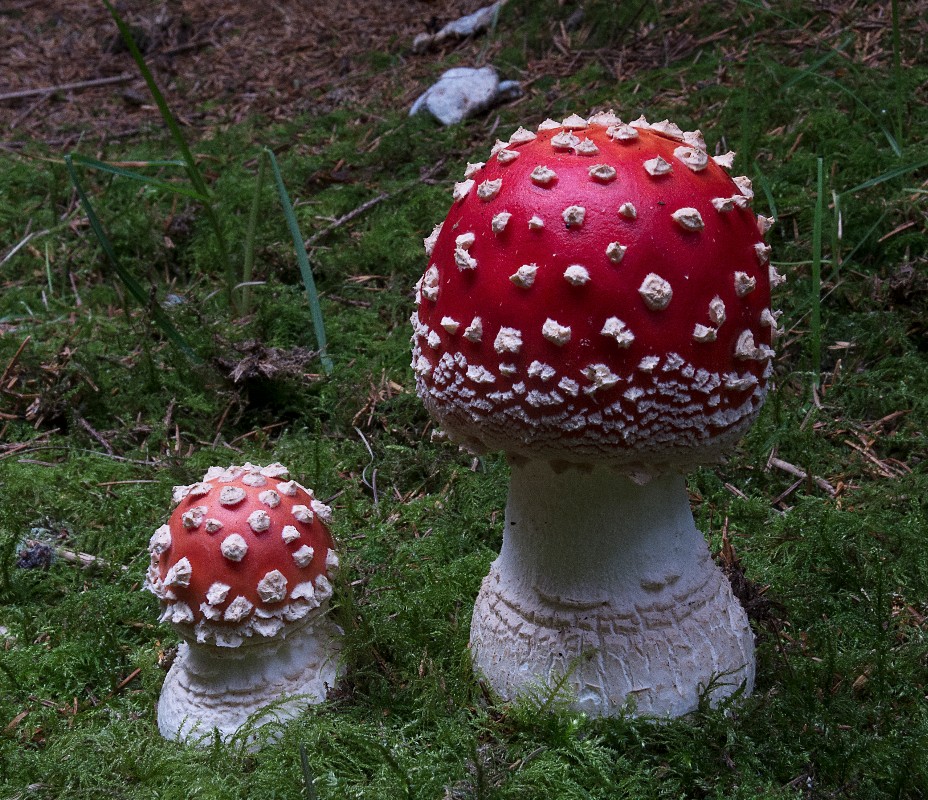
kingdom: Fungi
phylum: Basidiomycota
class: Agaricomycetes
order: Agaricales
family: Amanitaceae
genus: Amanita
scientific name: Amanita muscaria
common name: rød fluesvamp
